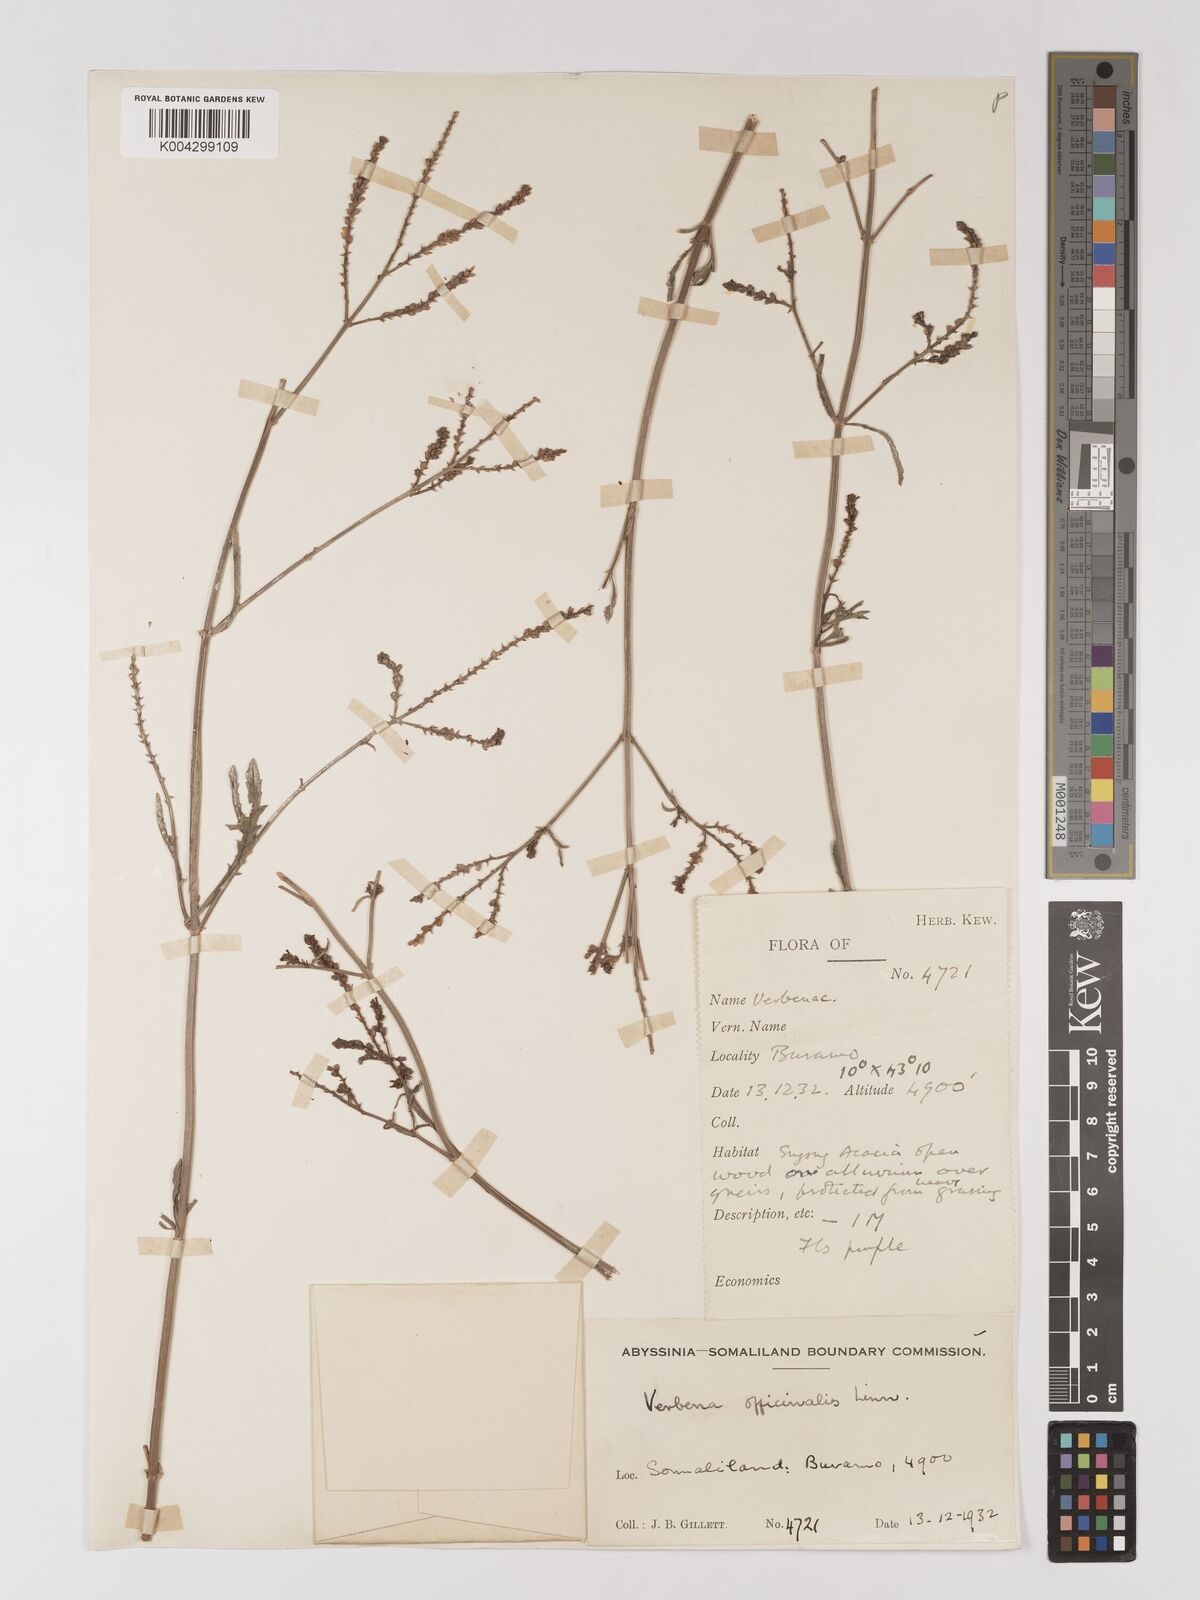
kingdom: Plantae
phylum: Tracheophyta
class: Magnoliopsida
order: Lamiales
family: Verbenaceae
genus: Verbena
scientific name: Verbena officinalis
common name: Vervain
